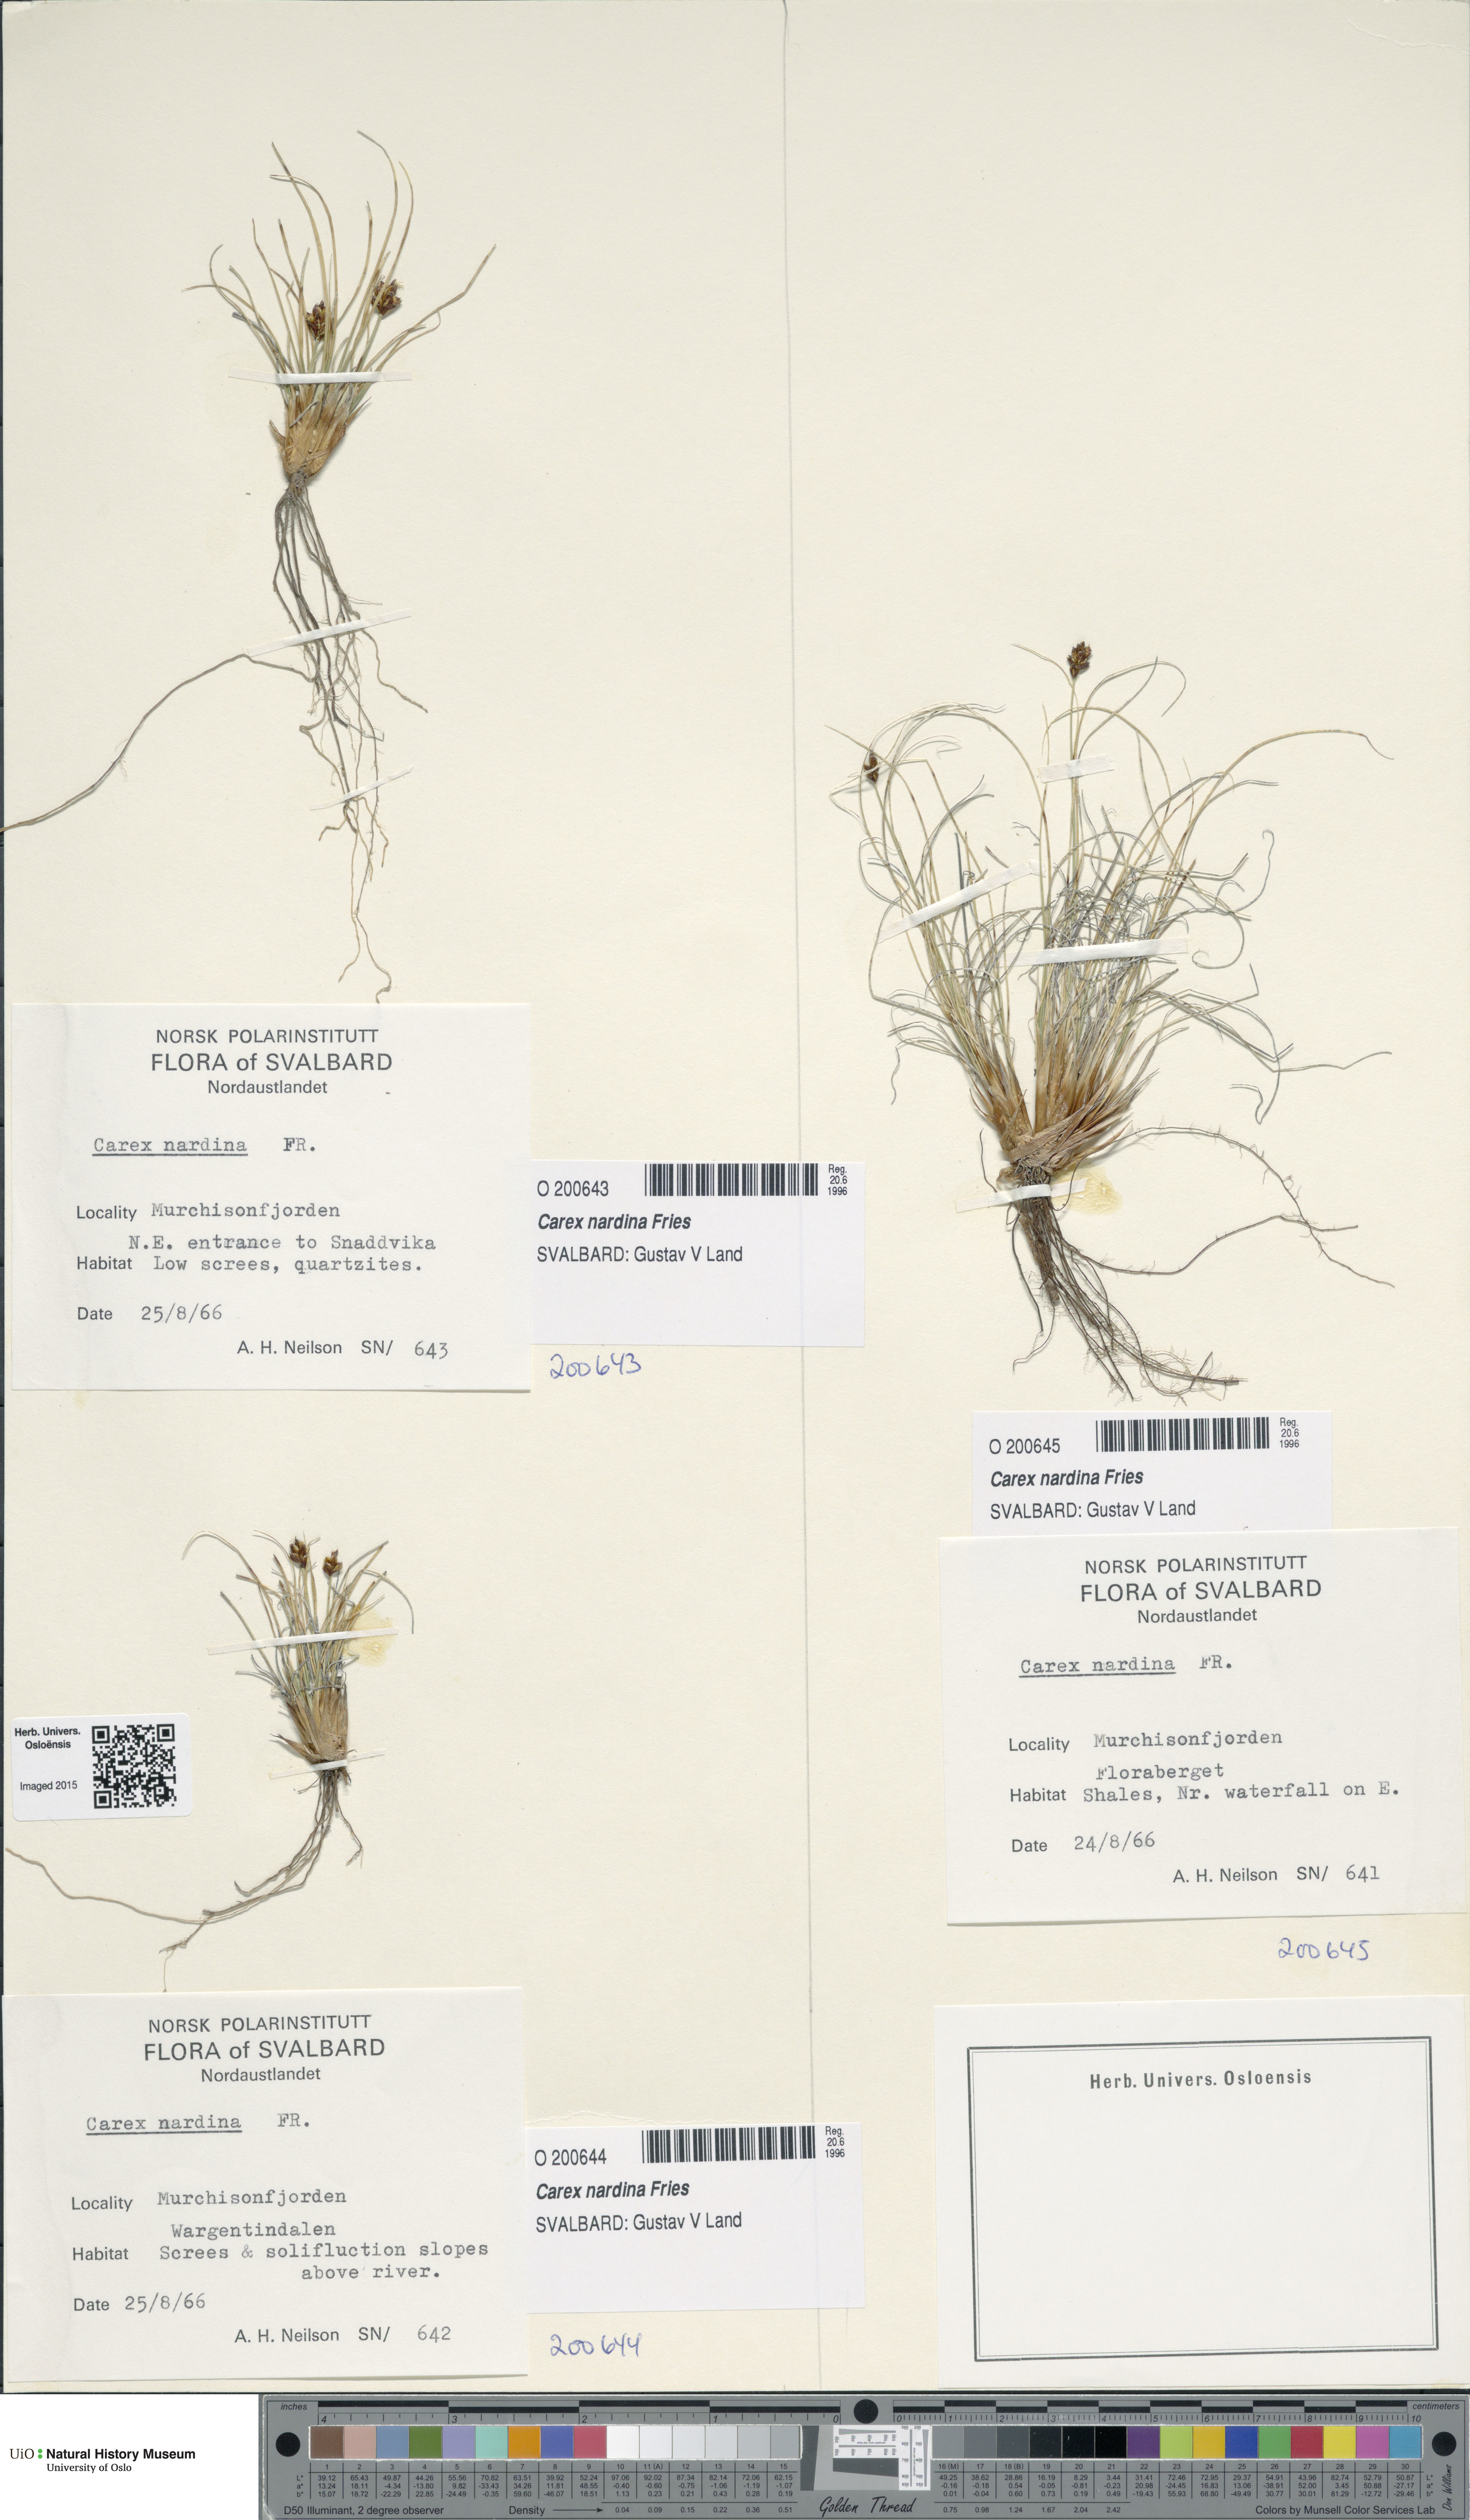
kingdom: Plantae
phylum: Tracheophyta
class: Liliopsida
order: Poales
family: Cyperaceae
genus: Carex
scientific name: Carex nardina
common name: Nard sedge
